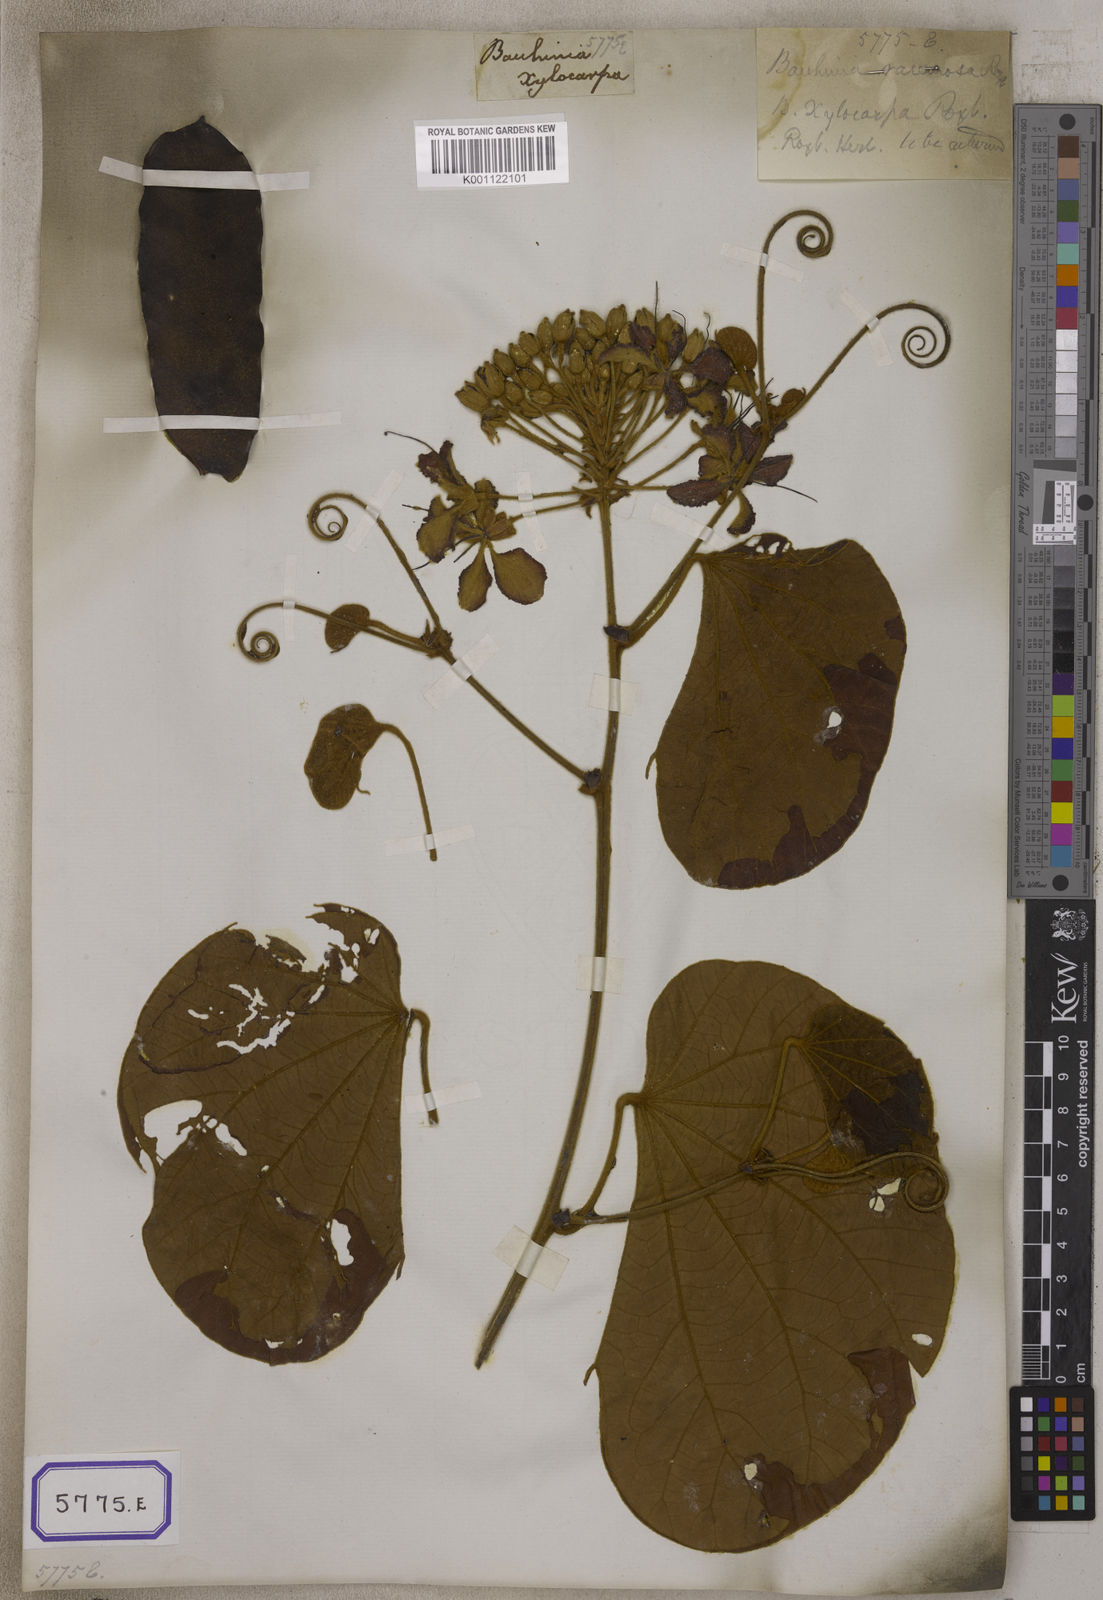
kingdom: Plantae
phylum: Tracheophyta
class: Magnoliopsida
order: Fabales
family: Fabaceae
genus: Bauhinia
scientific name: Bauhinia
